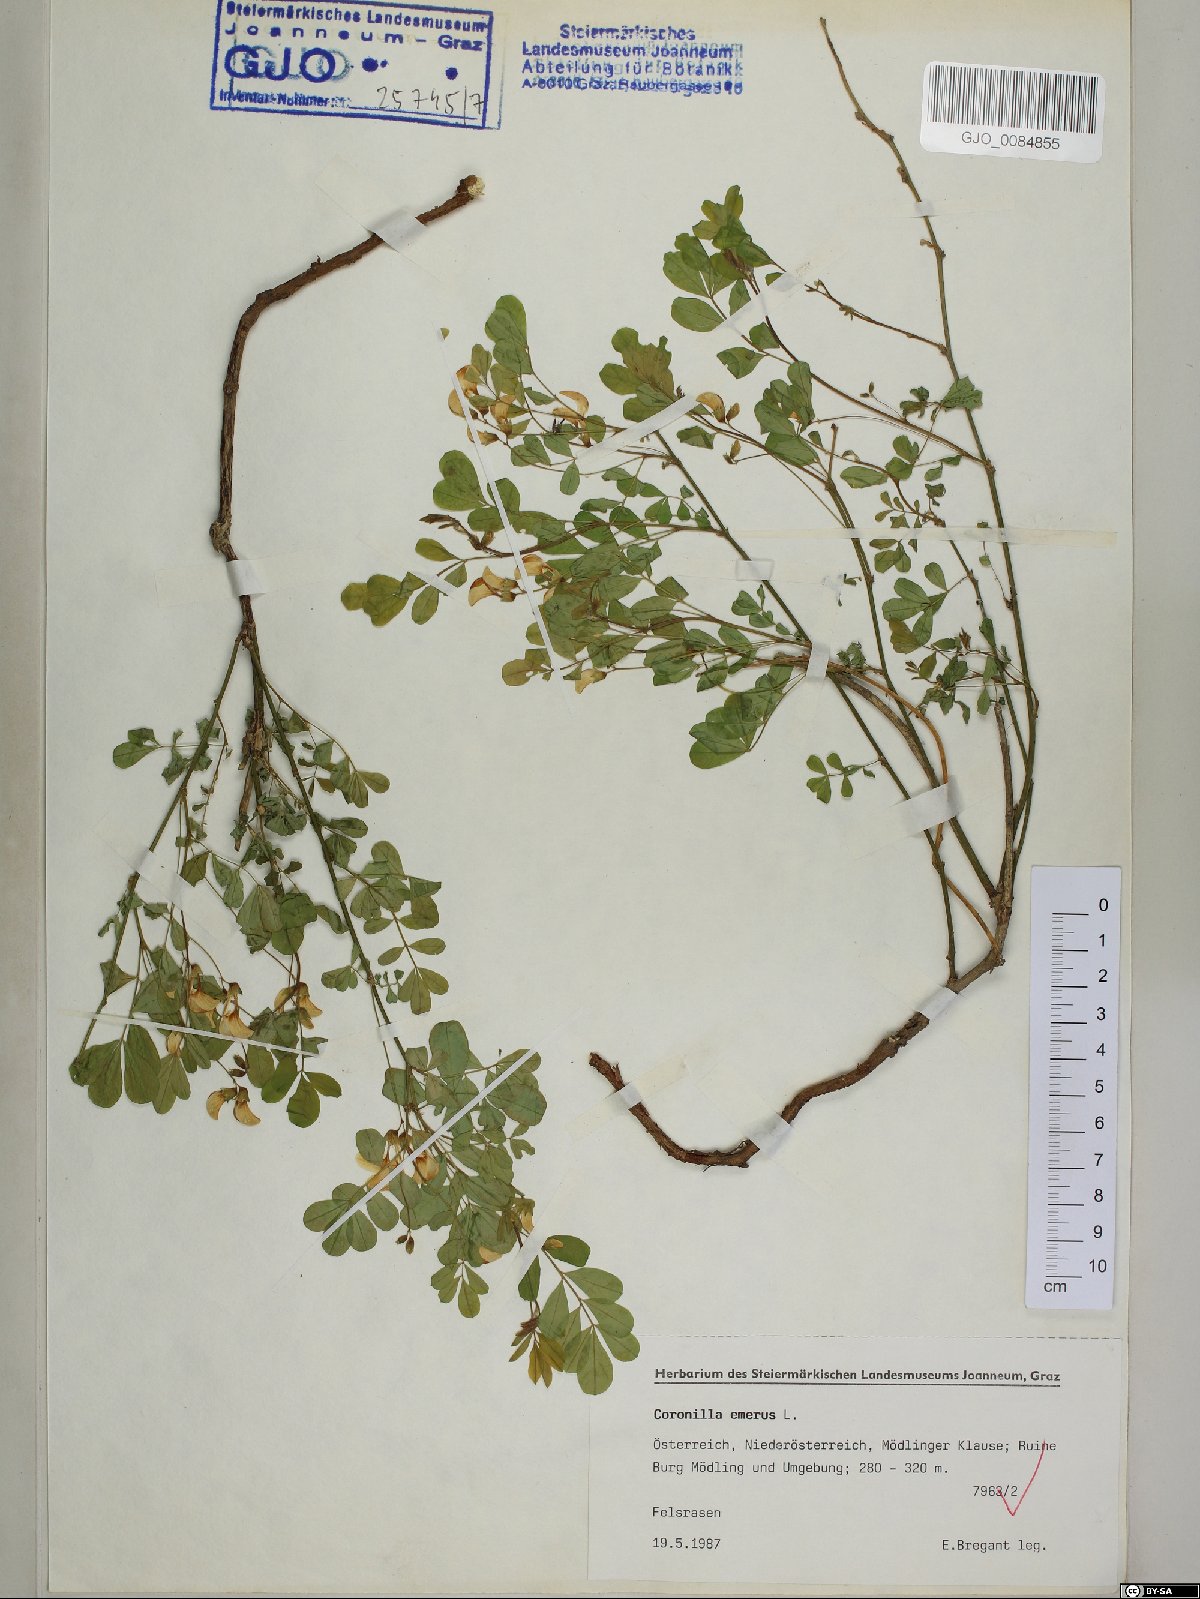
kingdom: Plantae
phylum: Tracheophyta
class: Magnoliopsida
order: Fabales
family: Fabaceae
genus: Hippocrepis
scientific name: Hippocrepis emerus
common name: Scorpion senna
